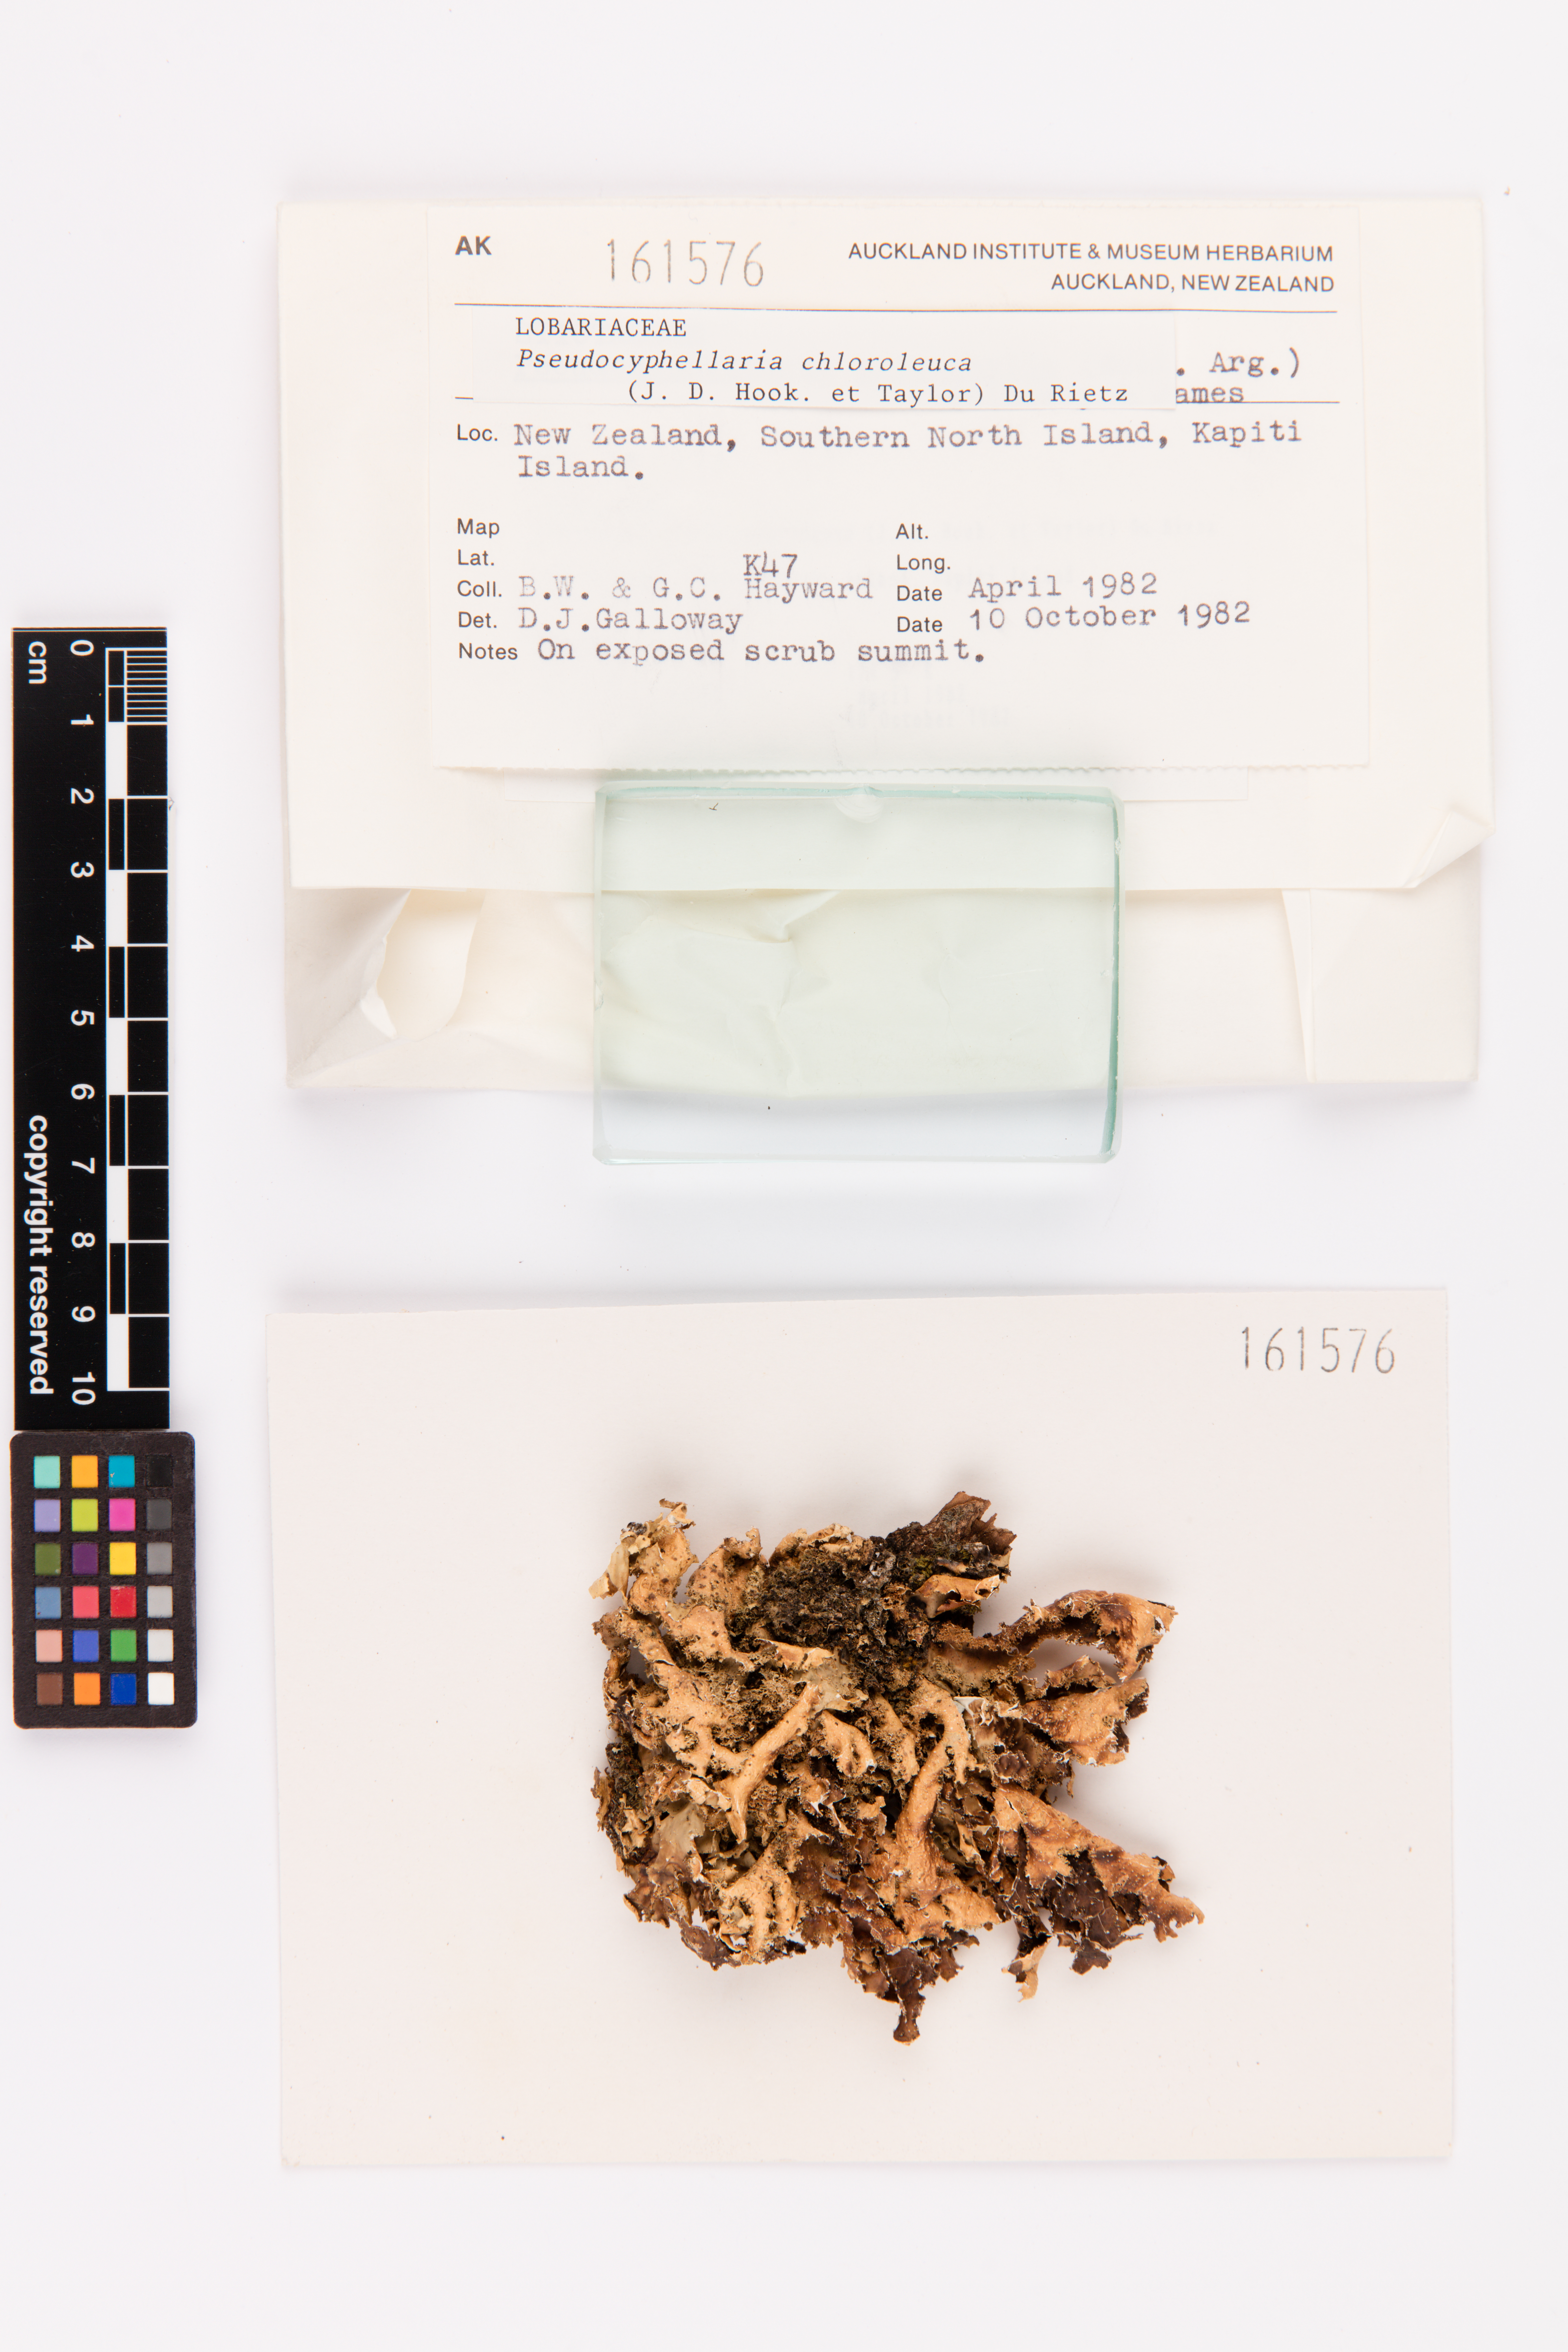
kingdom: Fungi
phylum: Ascomycota
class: Lecanoromycetes
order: Peltigerales
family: Lobariaceae
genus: Pseudocyphellaria
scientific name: Pseudocyphellaria chloroleuca
